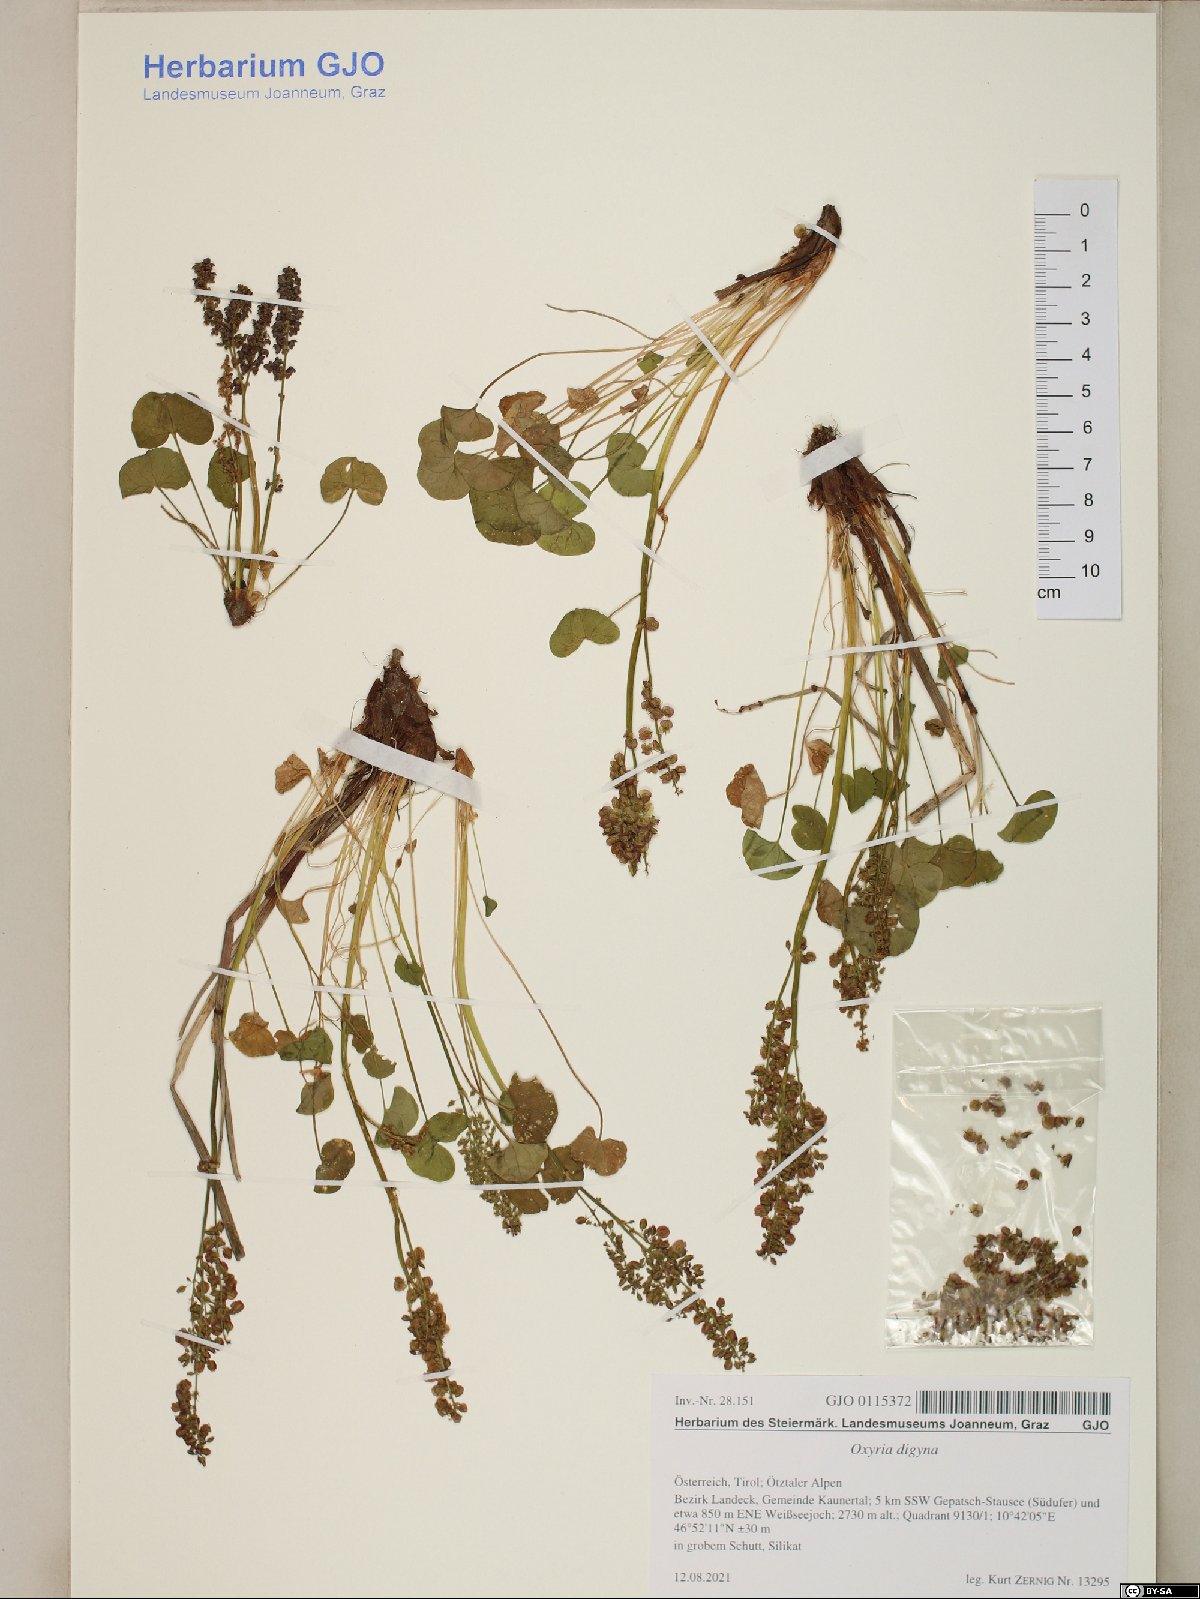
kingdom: Plantae
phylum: Tracheophyta
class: Magnoliopsida
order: Caryophyllales
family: Polygonaceae
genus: Oxyria
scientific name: Oxyria digyna
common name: Alpine mountain-sorrel
